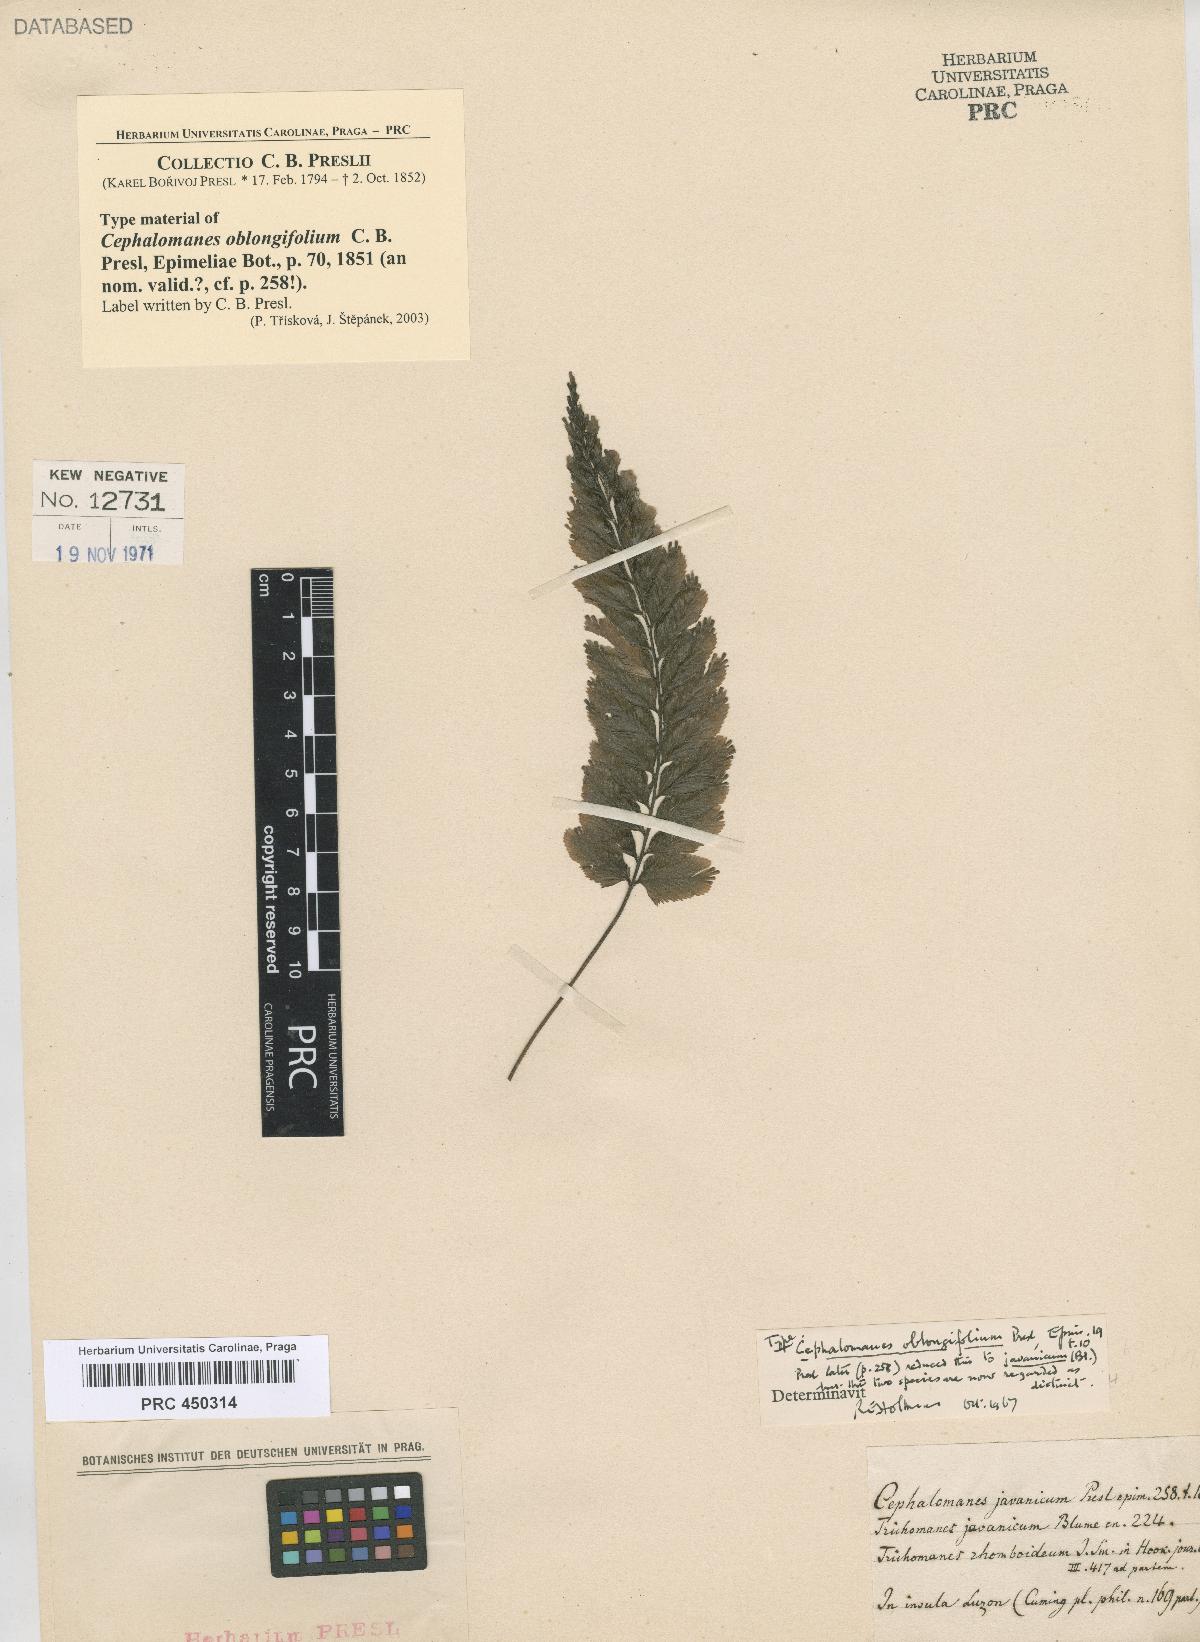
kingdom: Plantae
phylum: Tracheophyta
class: Polypodiopsida
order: Hymenophyllales
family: Hymenophyllaceae
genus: Cephalomanes
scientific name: Cephalomanes javanicum
